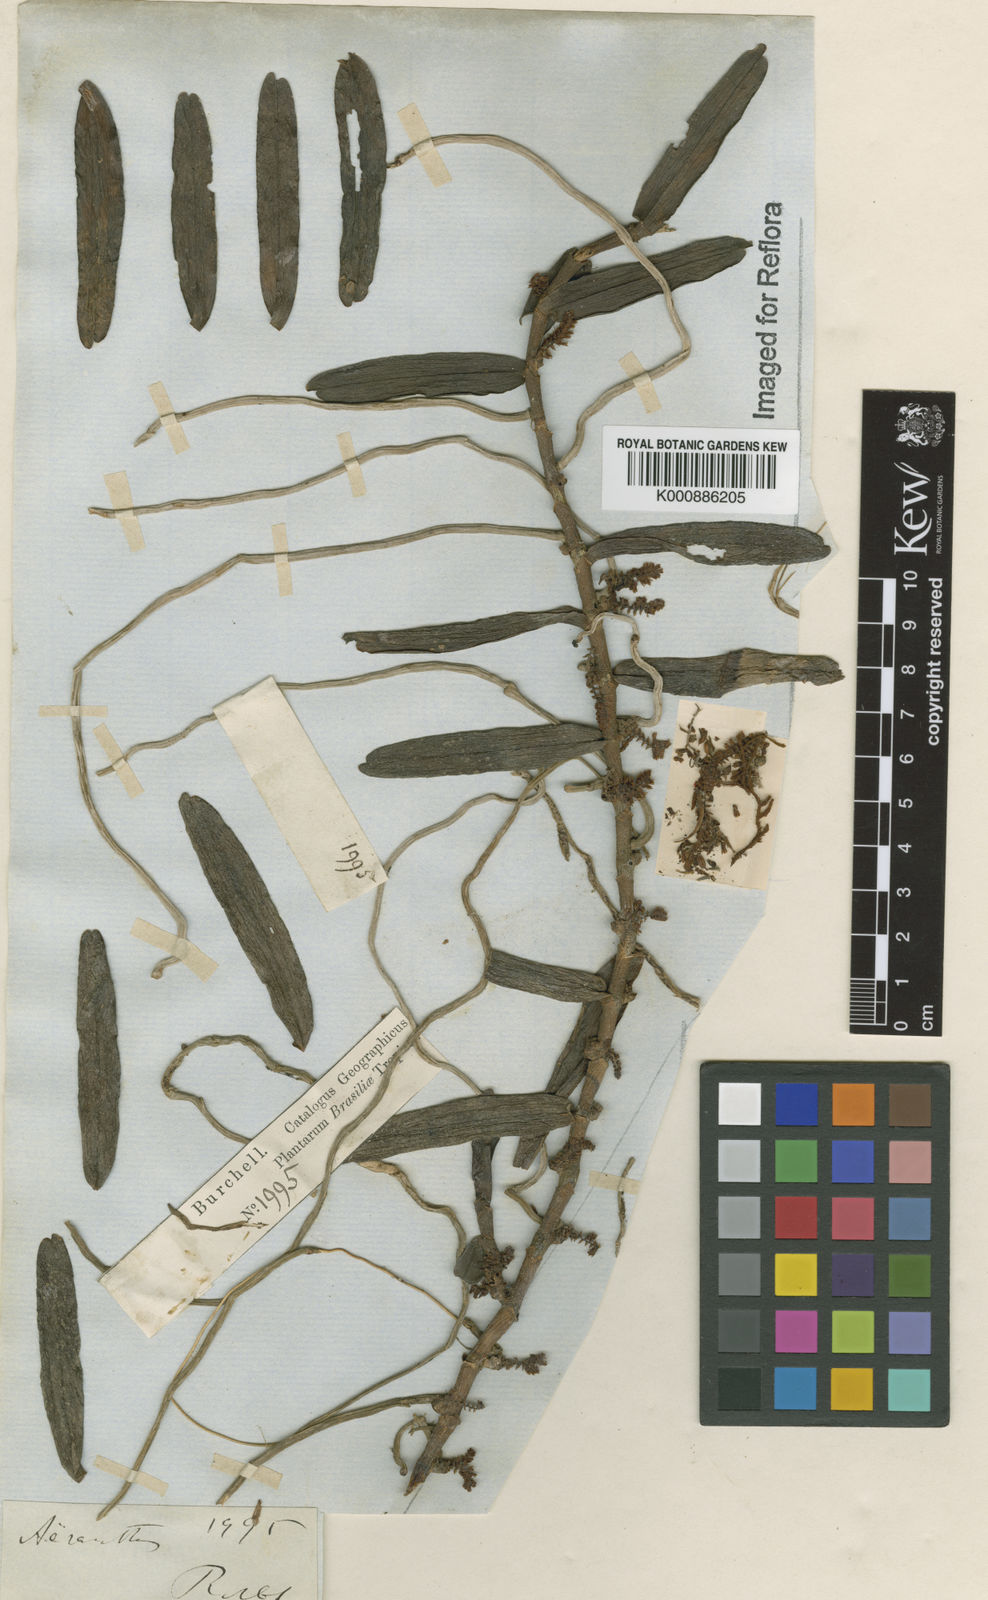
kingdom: Plantae
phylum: Tracheophyta
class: Liliopsida
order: Asparagales
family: Orchidaceae
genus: Campylocentrum
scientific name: Campylocentrum organense
